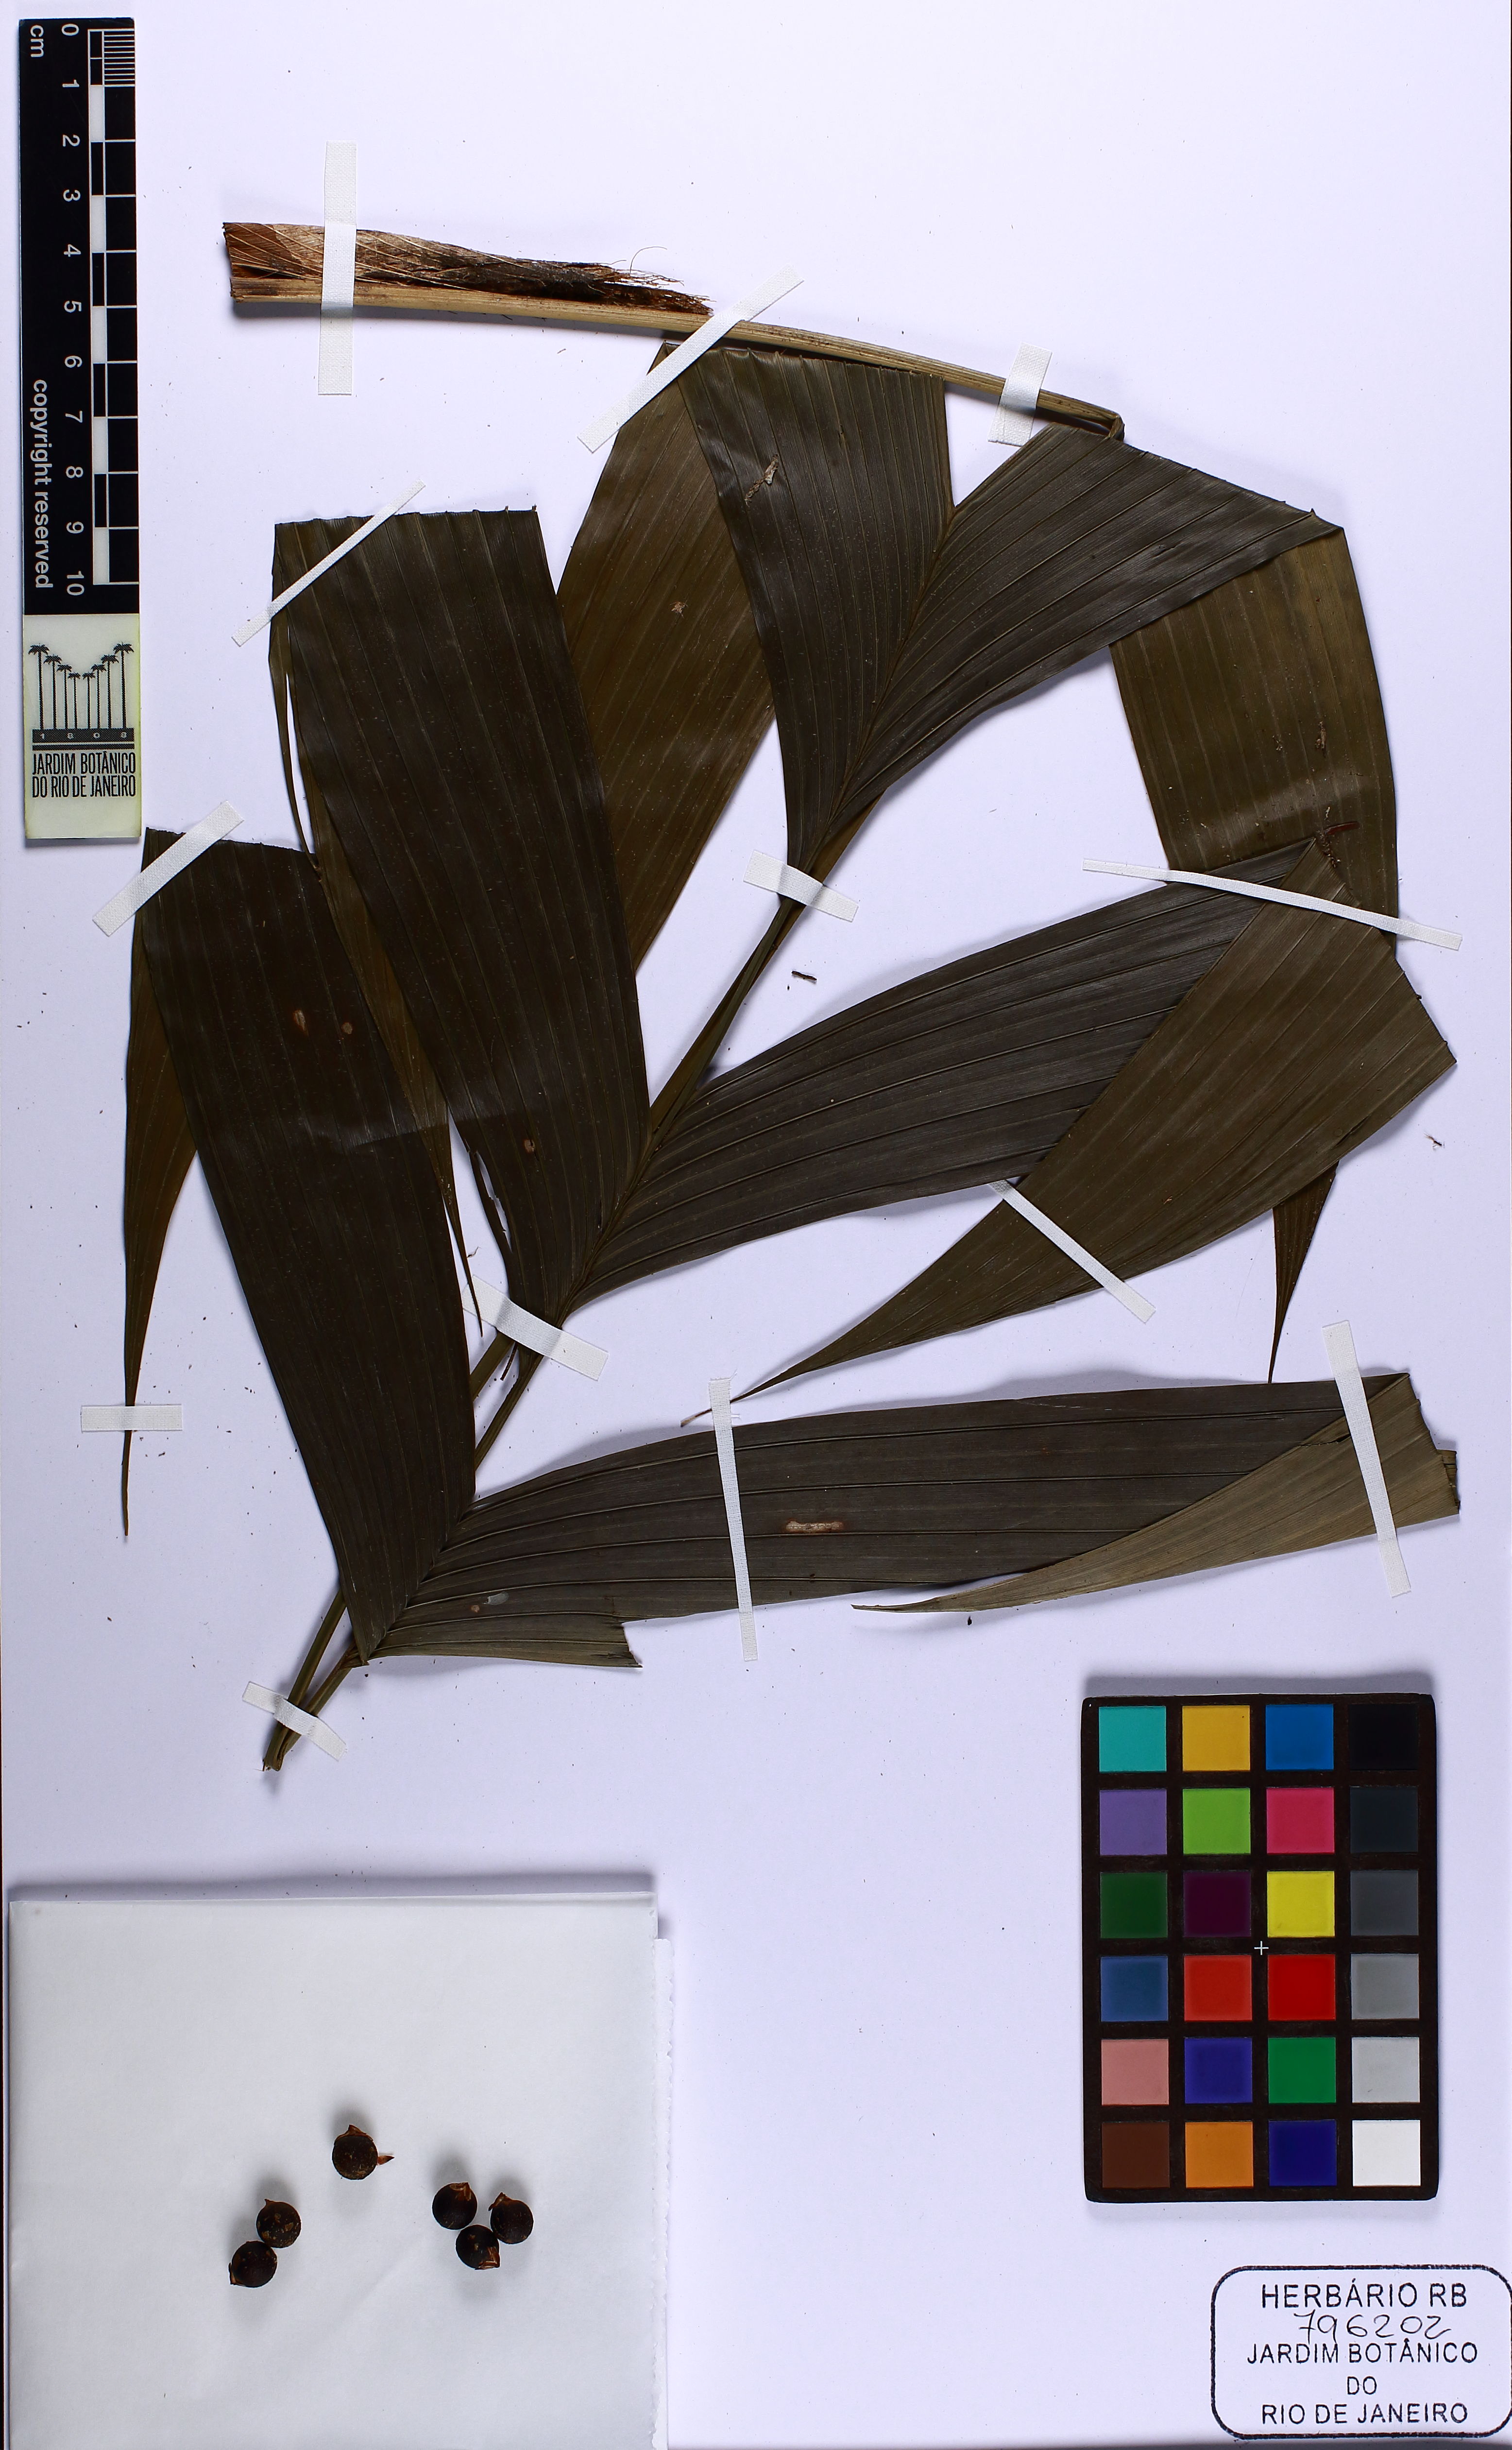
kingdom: Plantae
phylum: Tracheophyta
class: Liliopsida
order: Arecales
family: Arecaceae
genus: Geonoma
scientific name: Geonoma pohliana
